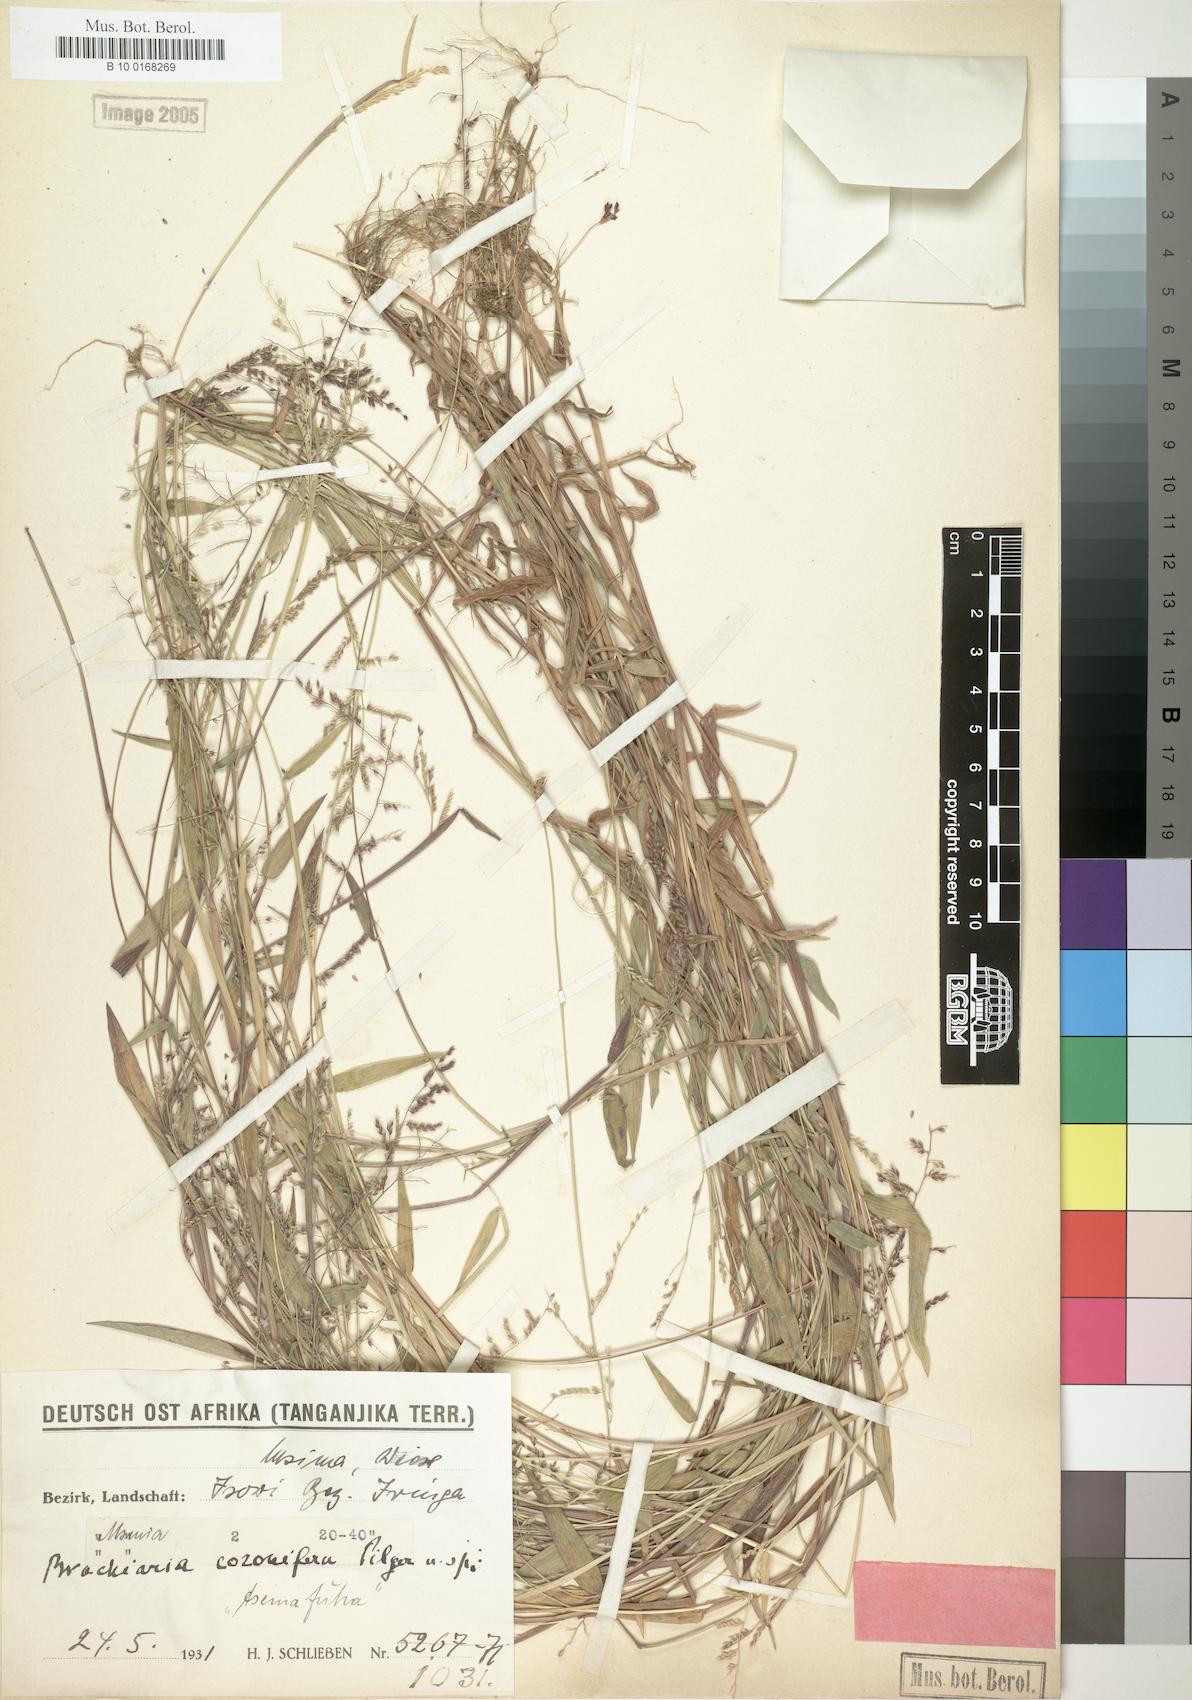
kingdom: Plantae
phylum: Tracheophyta
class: Liliopsida
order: Poales
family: Poaceae
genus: Urochloa
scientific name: Urochloa comata
